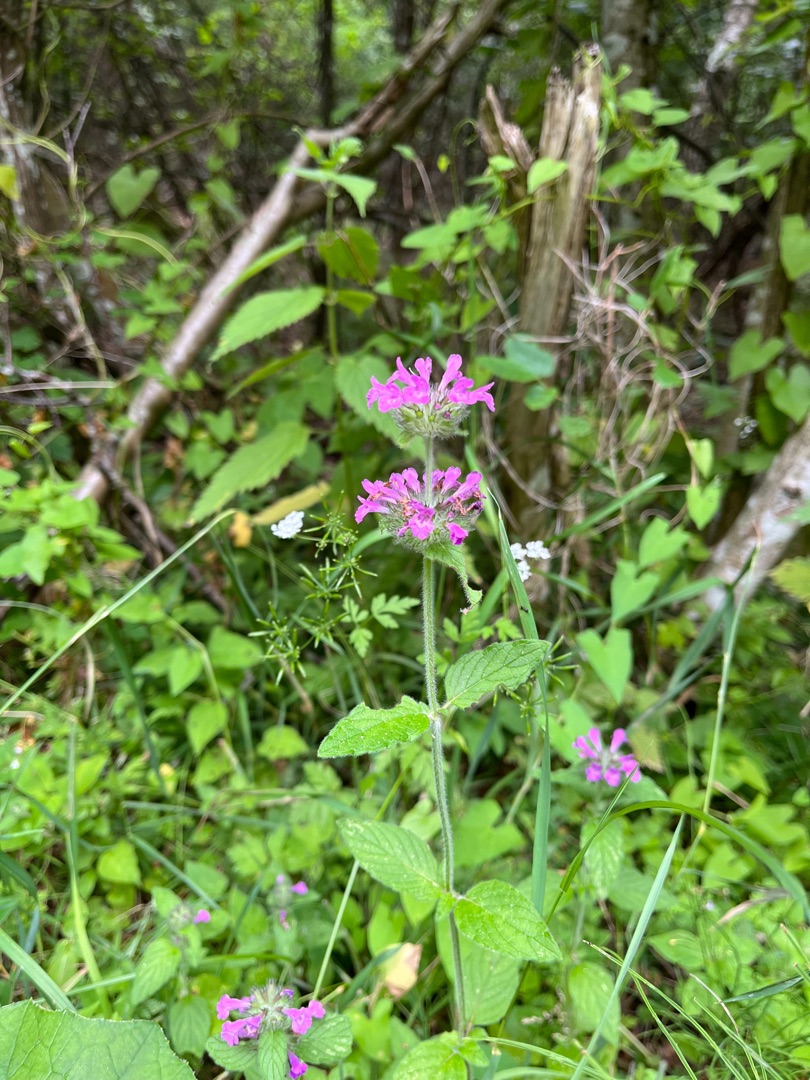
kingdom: Plantae
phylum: Tracheophyta
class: Magnoliopsida
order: Lamiales
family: Lamiaceae
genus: Clinopodium
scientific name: Clinopodium vulgare
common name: Kransbørste
